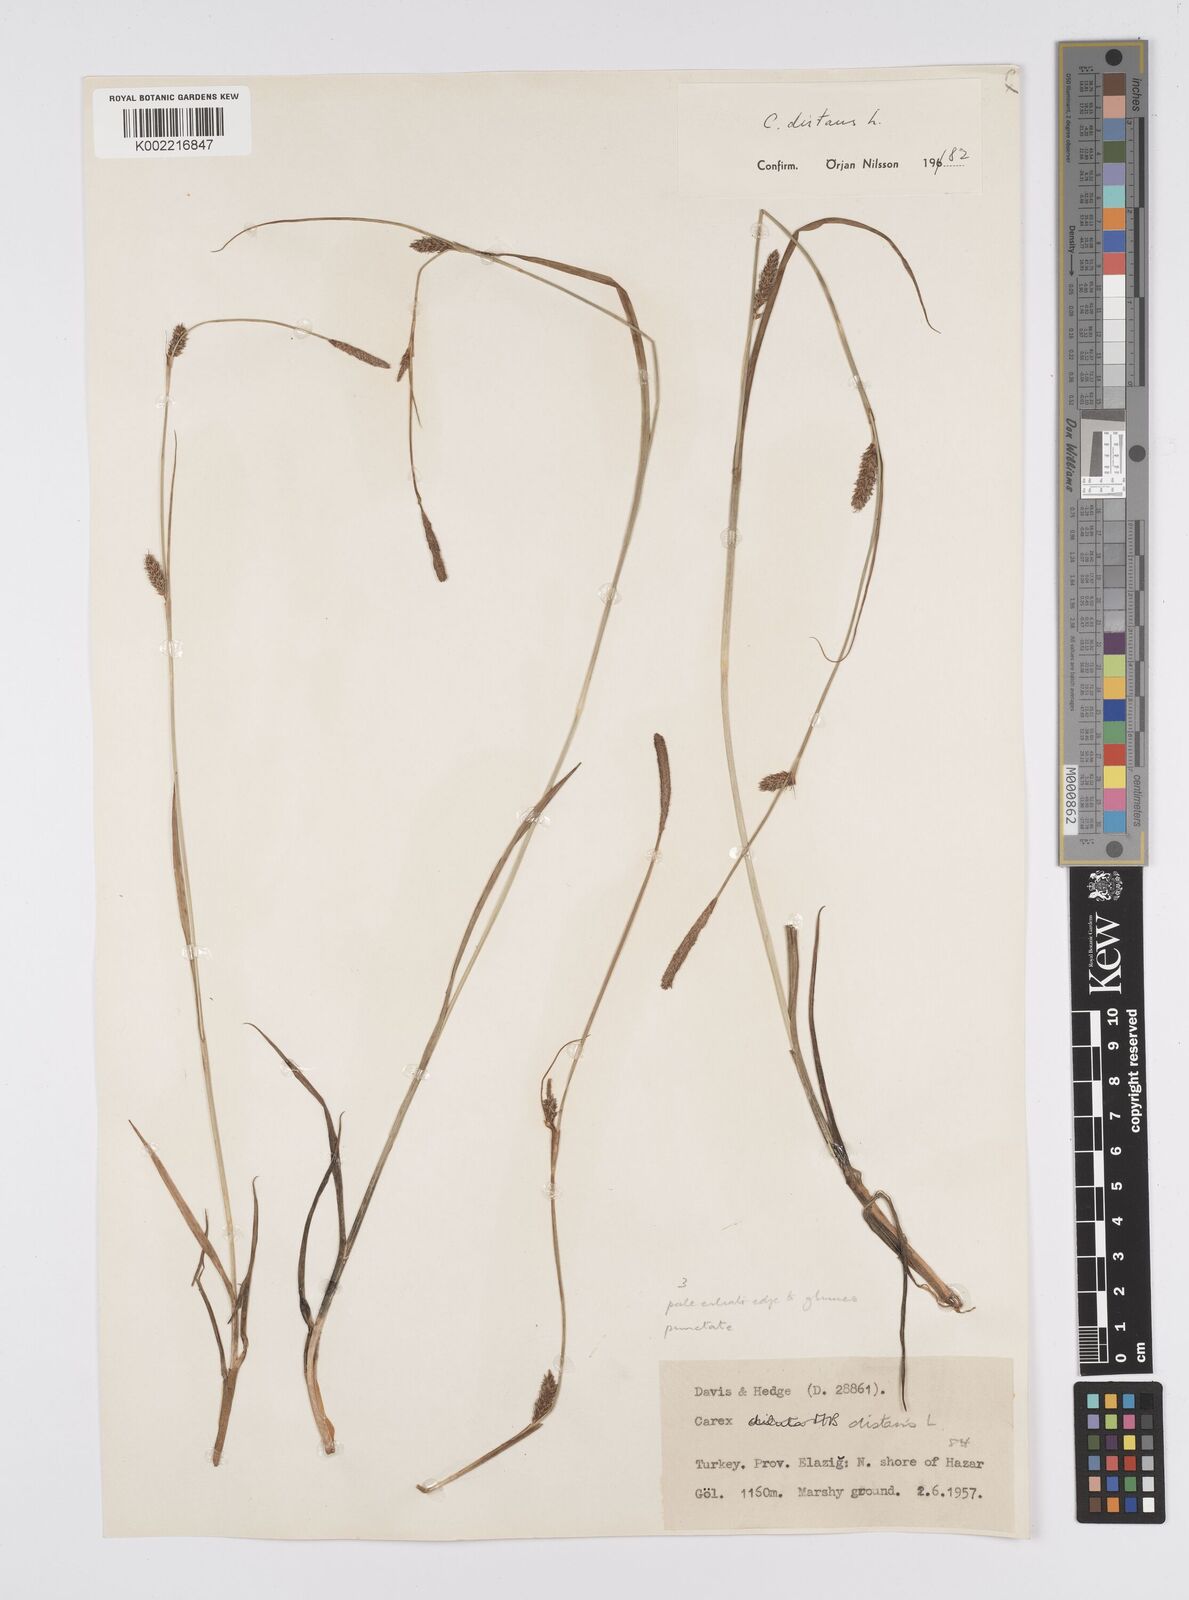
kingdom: Plantae
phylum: Tracheophyta
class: Liliopsida
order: Poales
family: Cyperaceae
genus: Carex
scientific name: Carex distans
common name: Distant sedge
